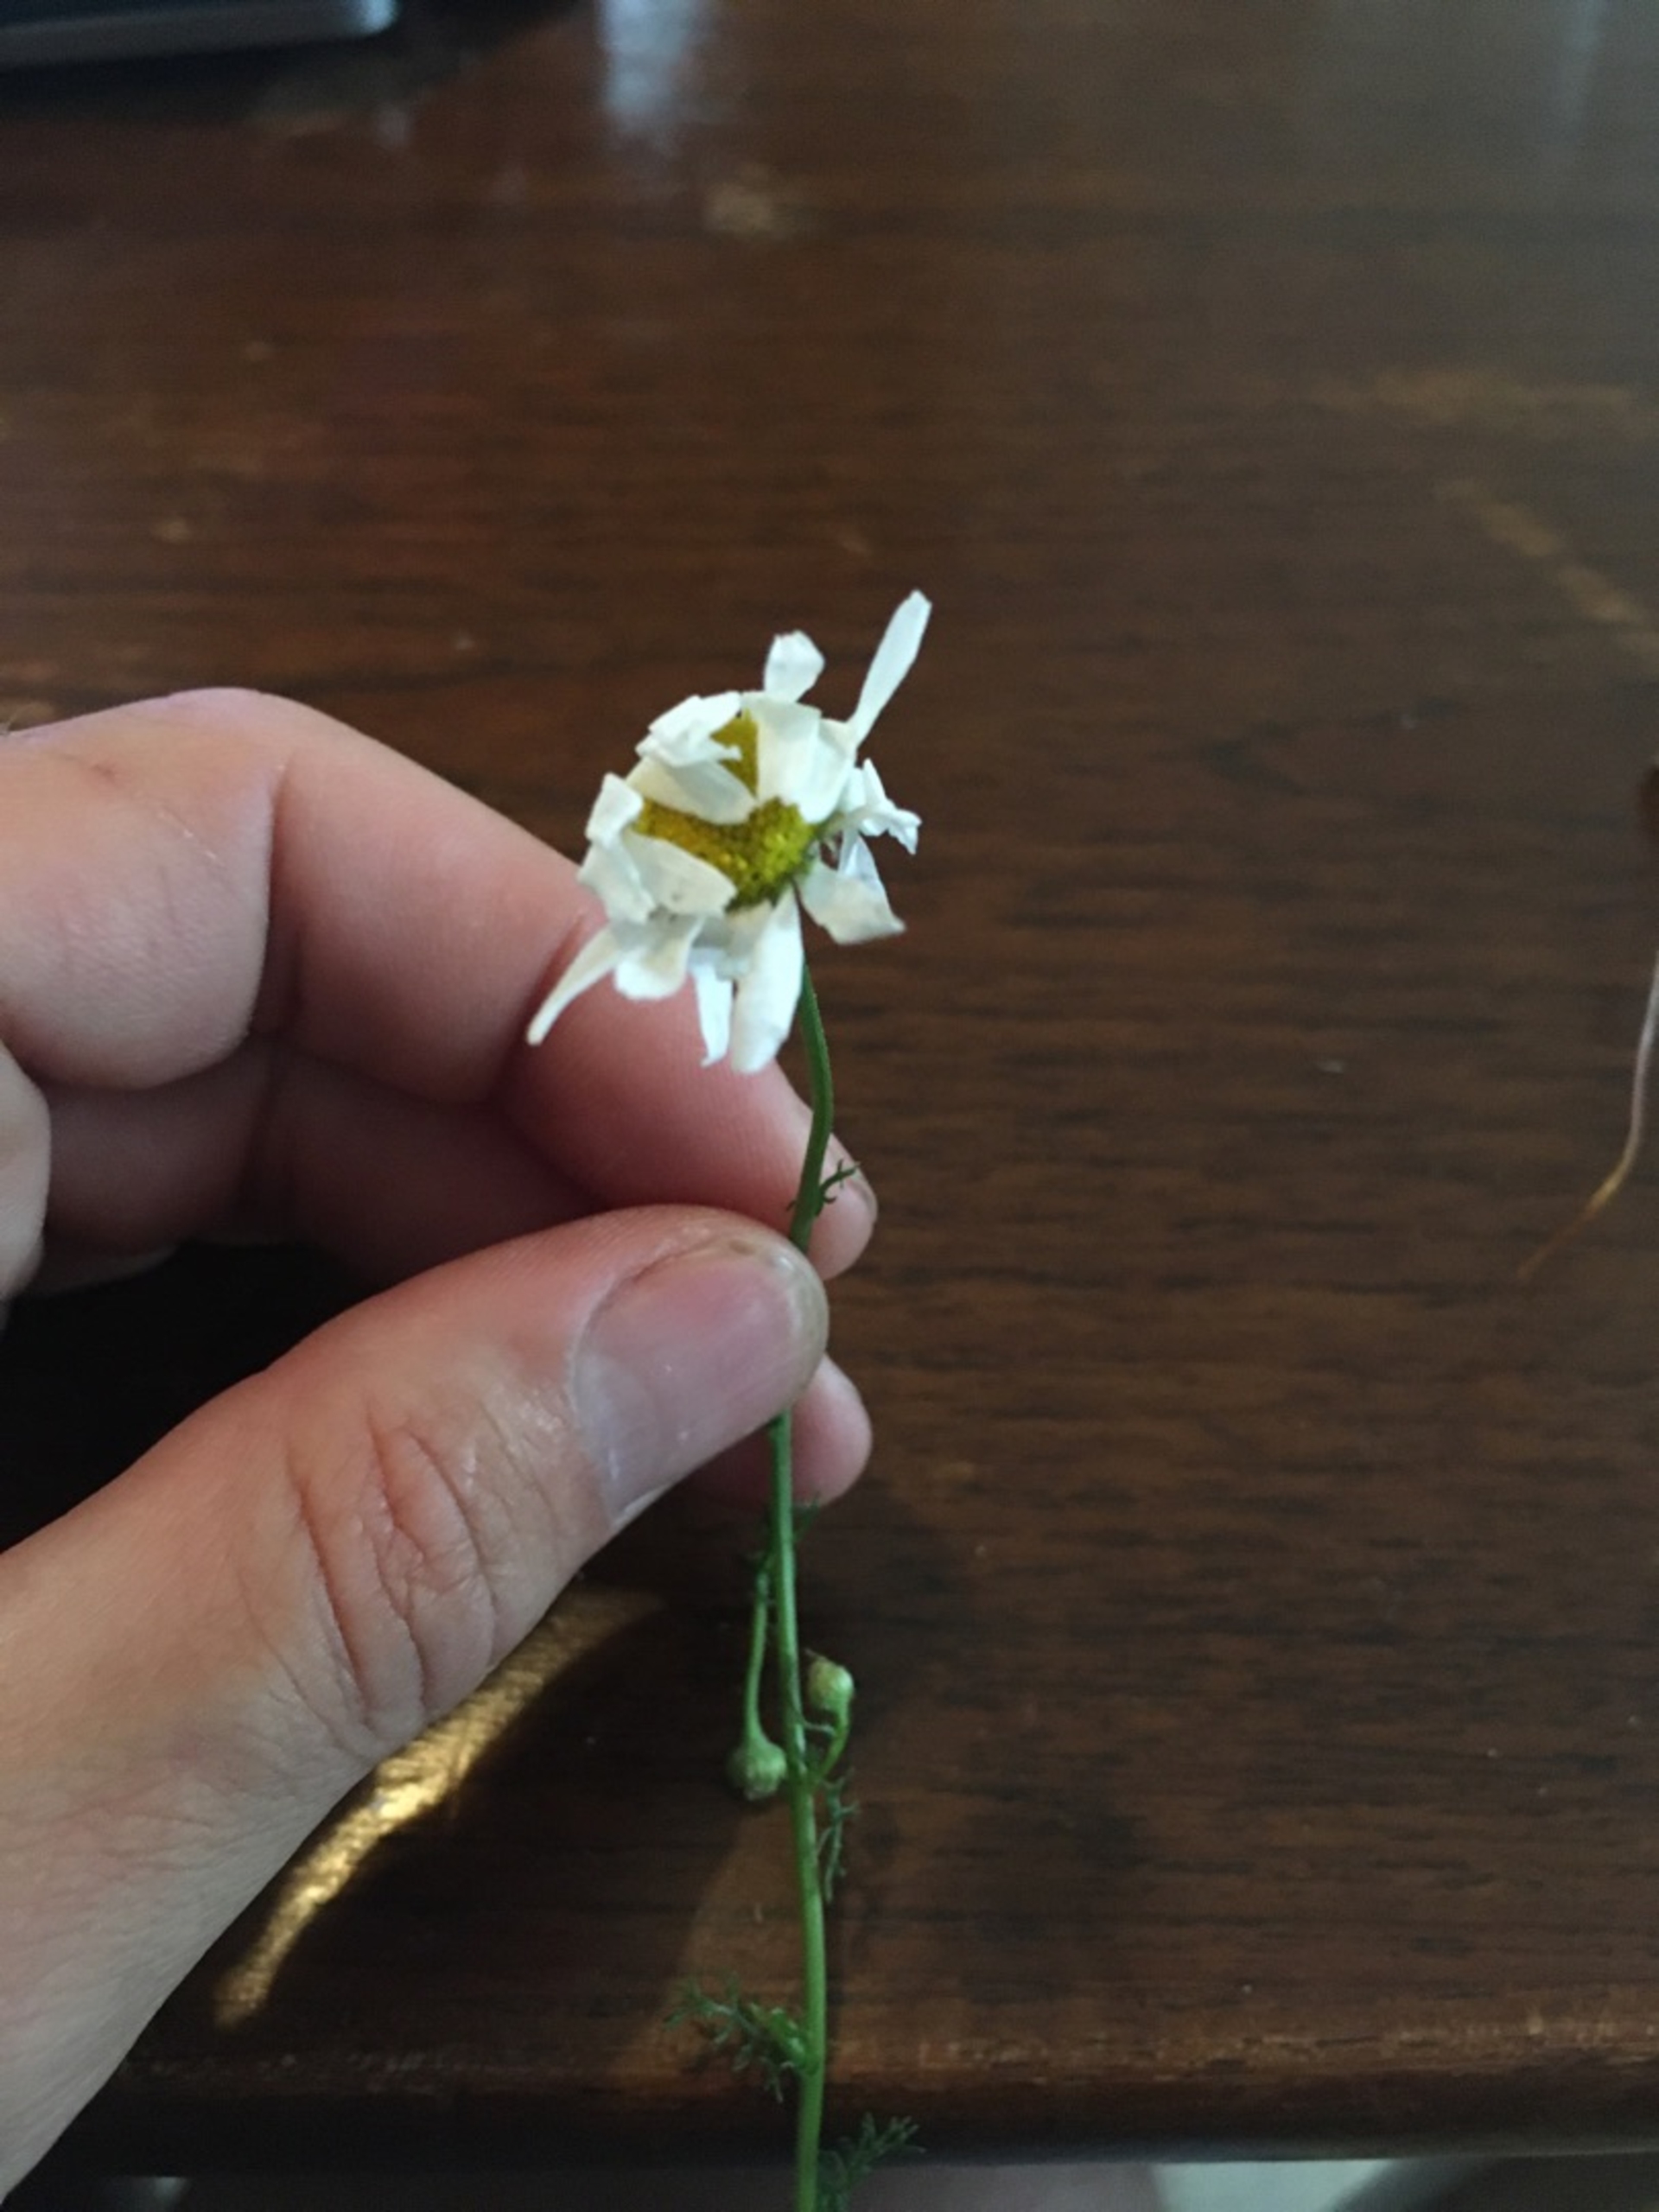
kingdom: Plantae
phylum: Tracheophyta
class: Magnoliopsida
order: Asterales
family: Asteraceae
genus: Tripleurospermum
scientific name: Tripleurospermum inodorum
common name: Lugtløs kamille
